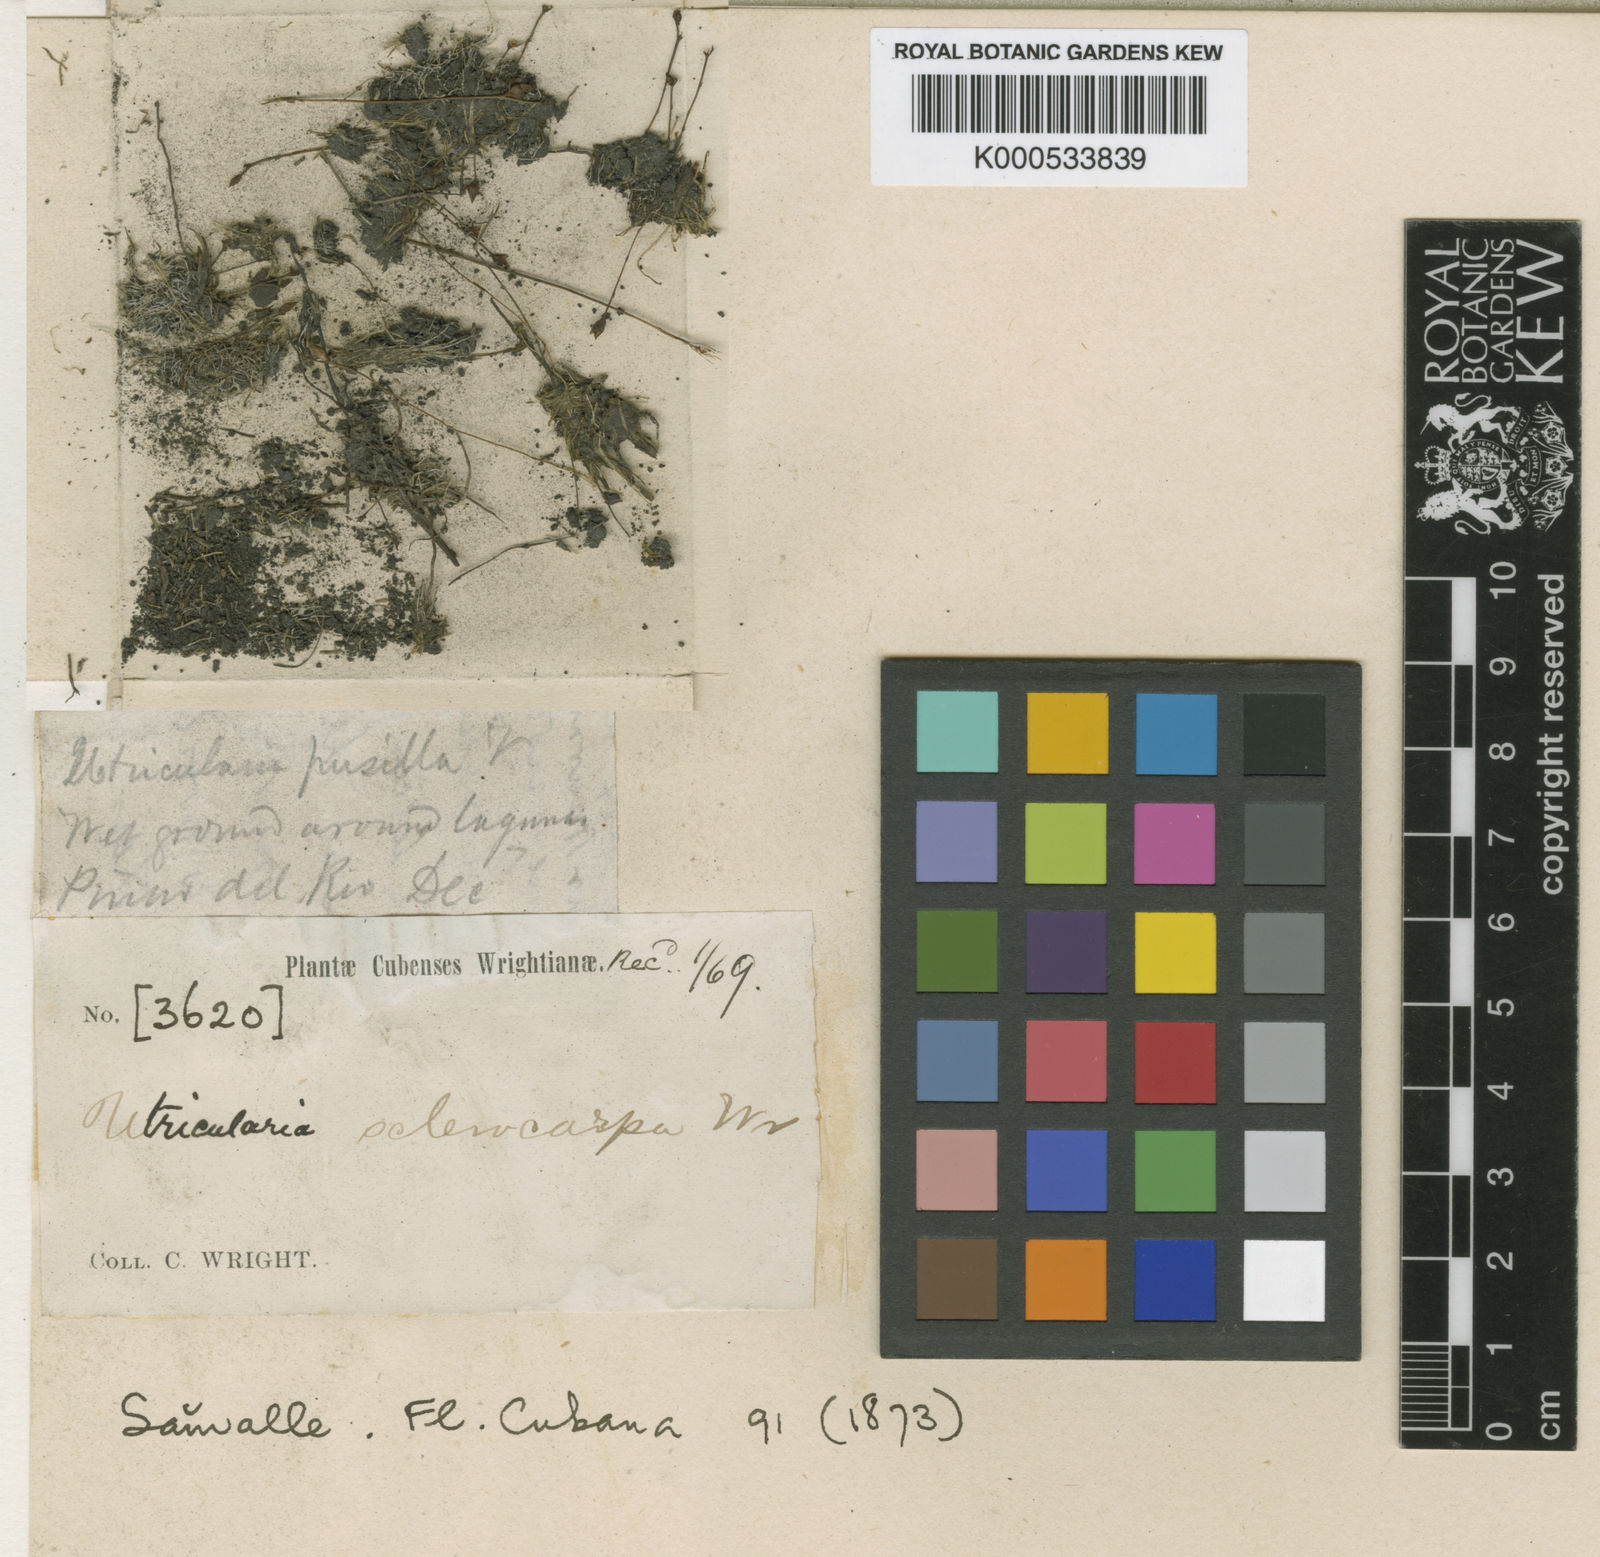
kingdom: Plantae
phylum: Tracheophyta
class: Magnoliopsida
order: Lamiales
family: Lentibulariaceae
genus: Utricularia
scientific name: Utricularia juncea
